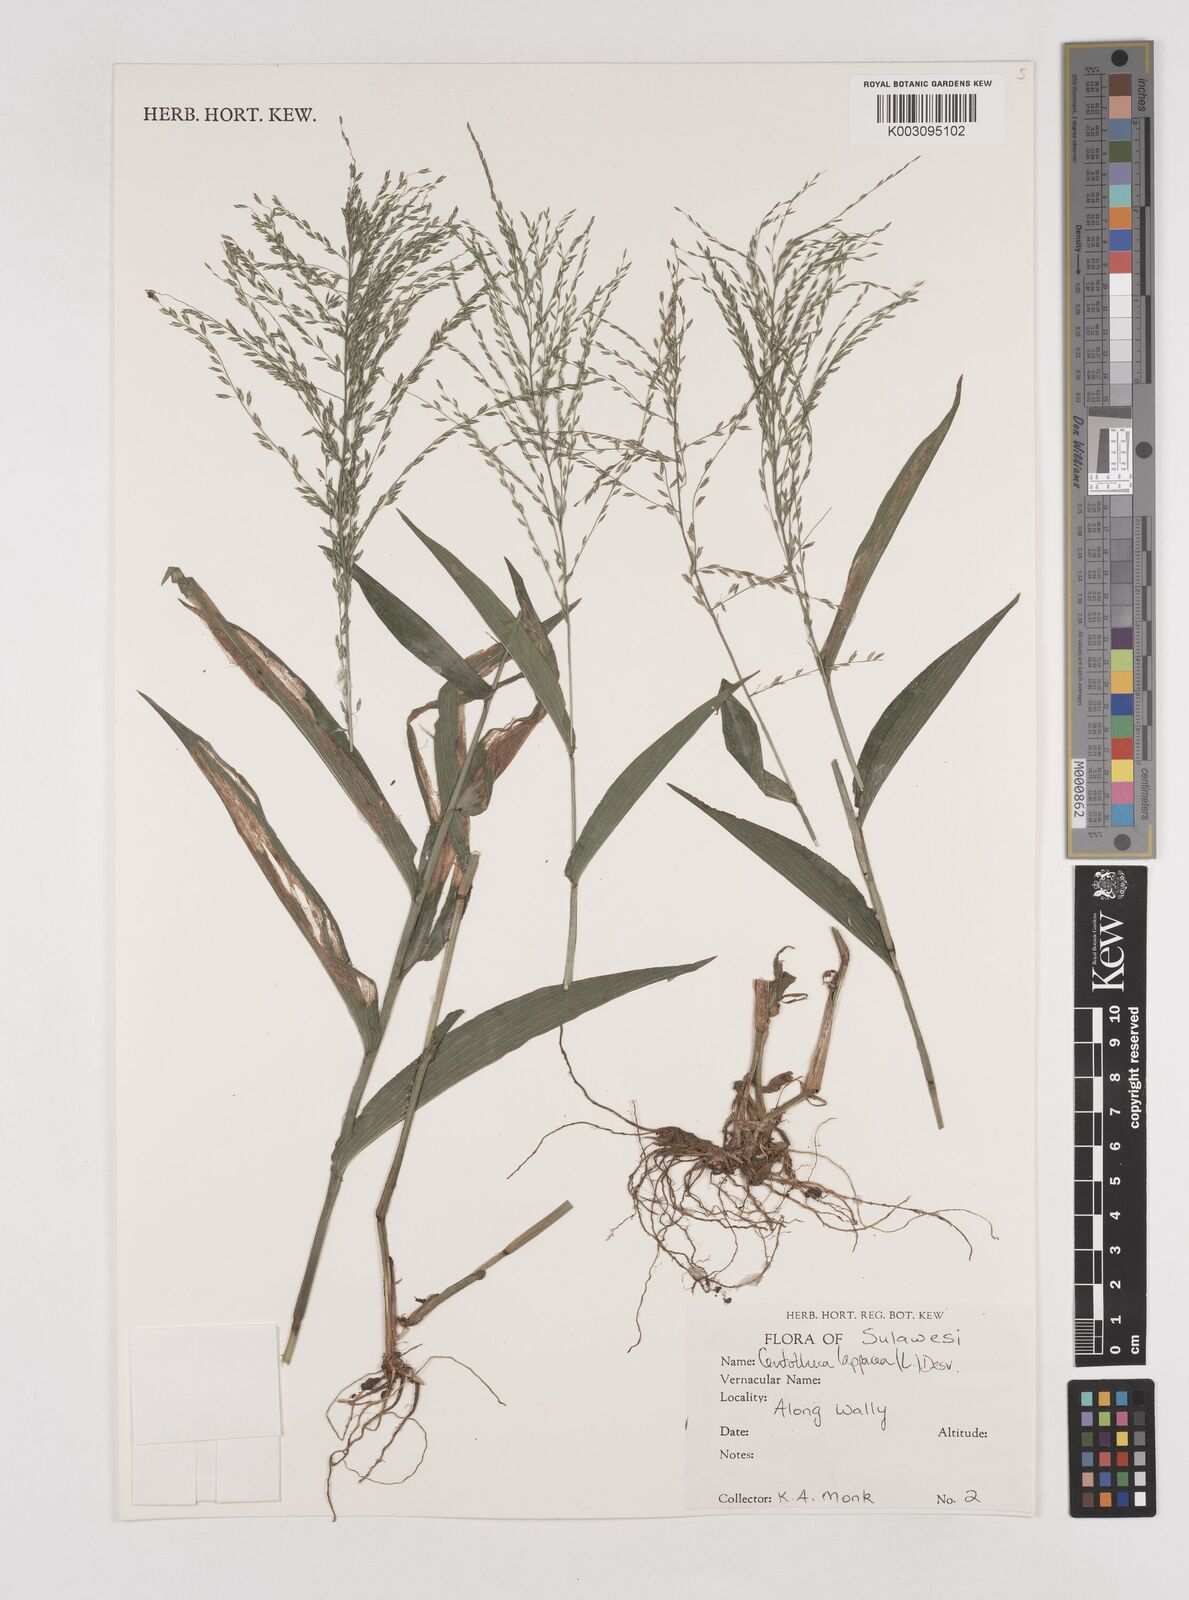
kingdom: Plantae
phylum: Tracheophyta
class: Liliopsida
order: Poales
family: Poaceae
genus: Centotheca
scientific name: Centotheca lappacea
